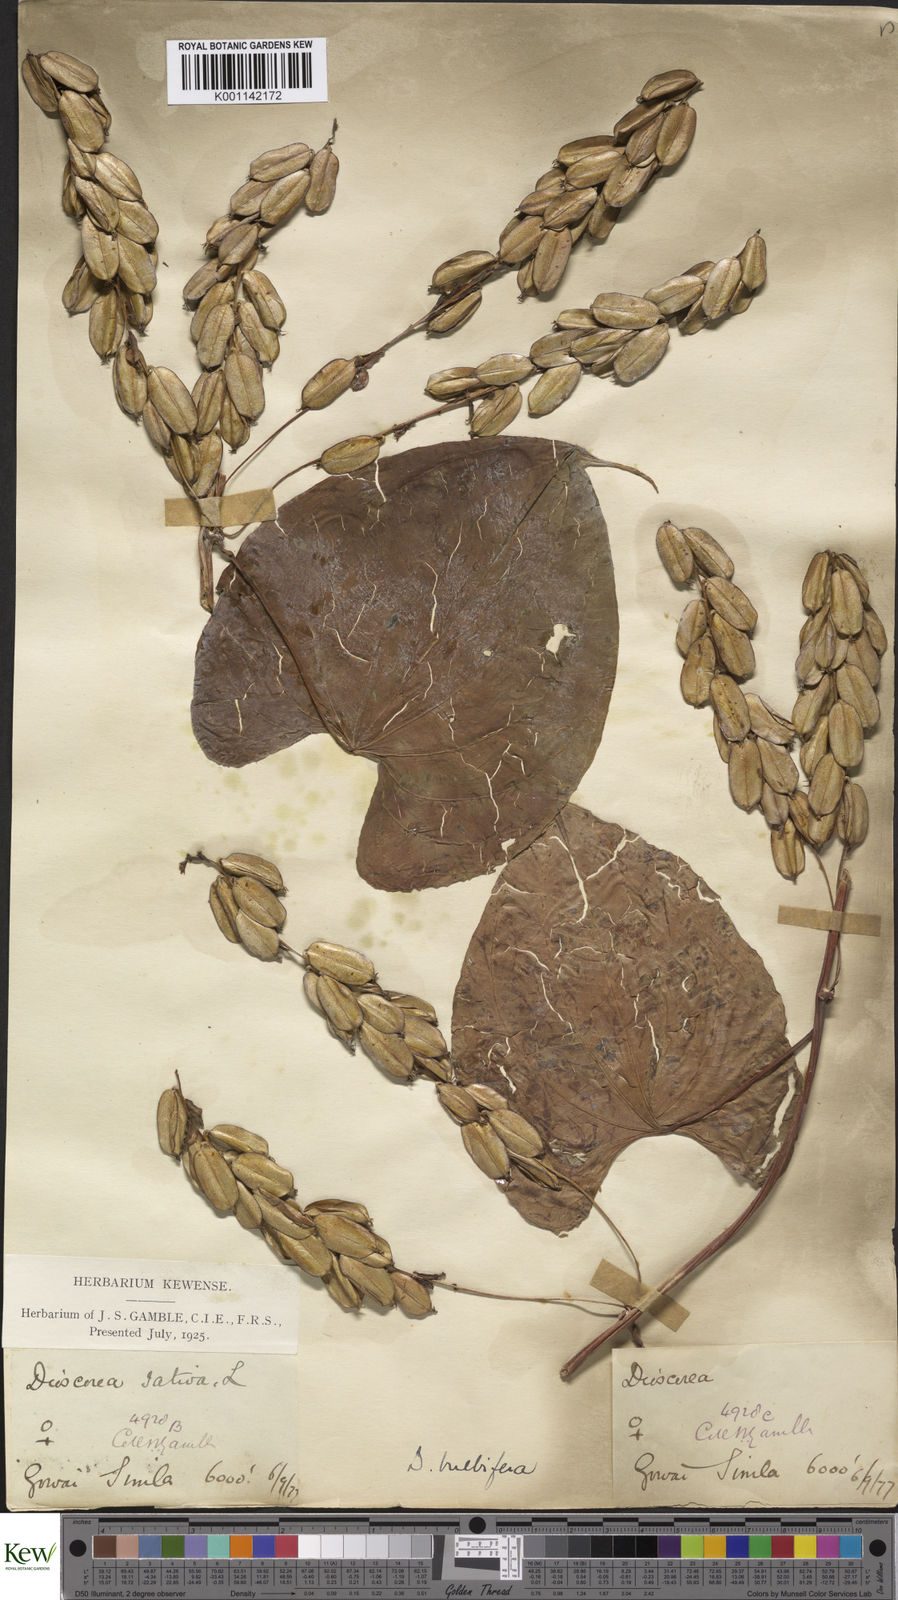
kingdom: Plantae
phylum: Tracheophyta
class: Liliopsida
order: Dioscoreales
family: Dioscoreaceae
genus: Dioscorea
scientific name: Dioscorea bulbifera
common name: Air yam
